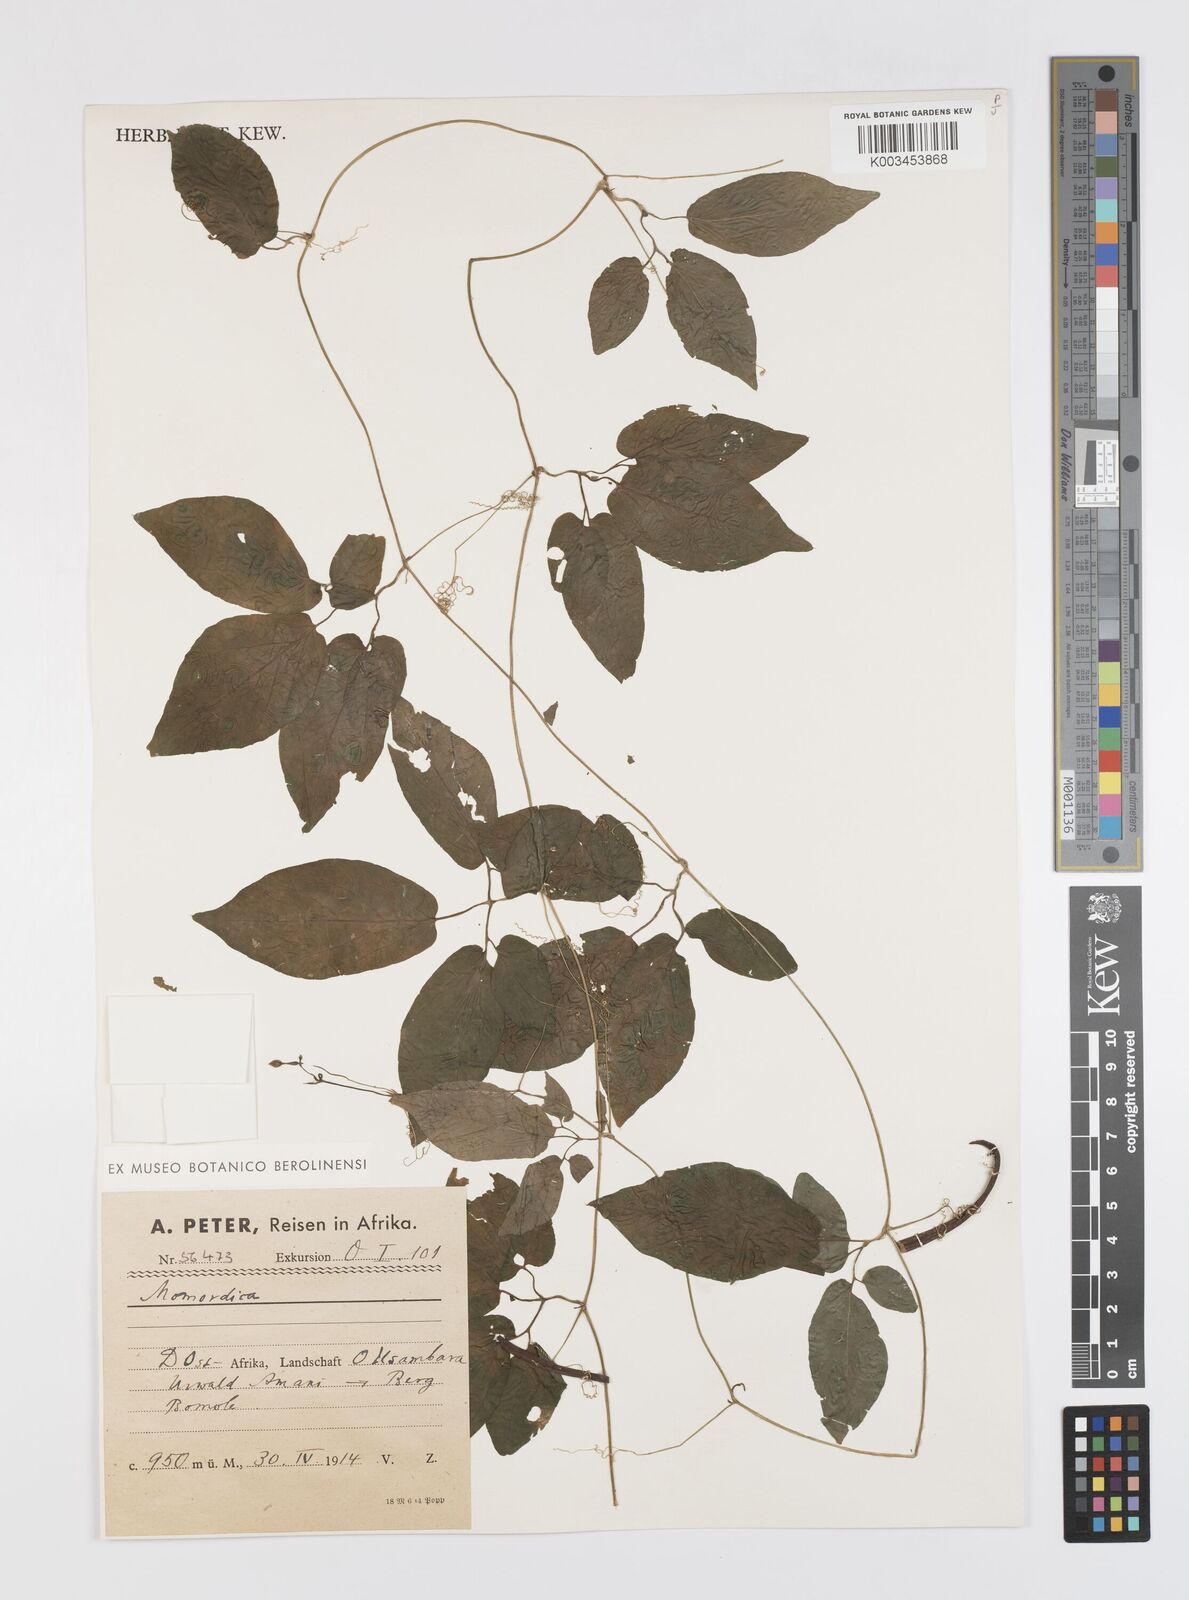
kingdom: Plantae
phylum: Tracheophyta
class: Magnoliopsida
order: Cucurbitales
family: Cucurbitaceae
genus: Momordica
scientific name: Momordica anigosantha
